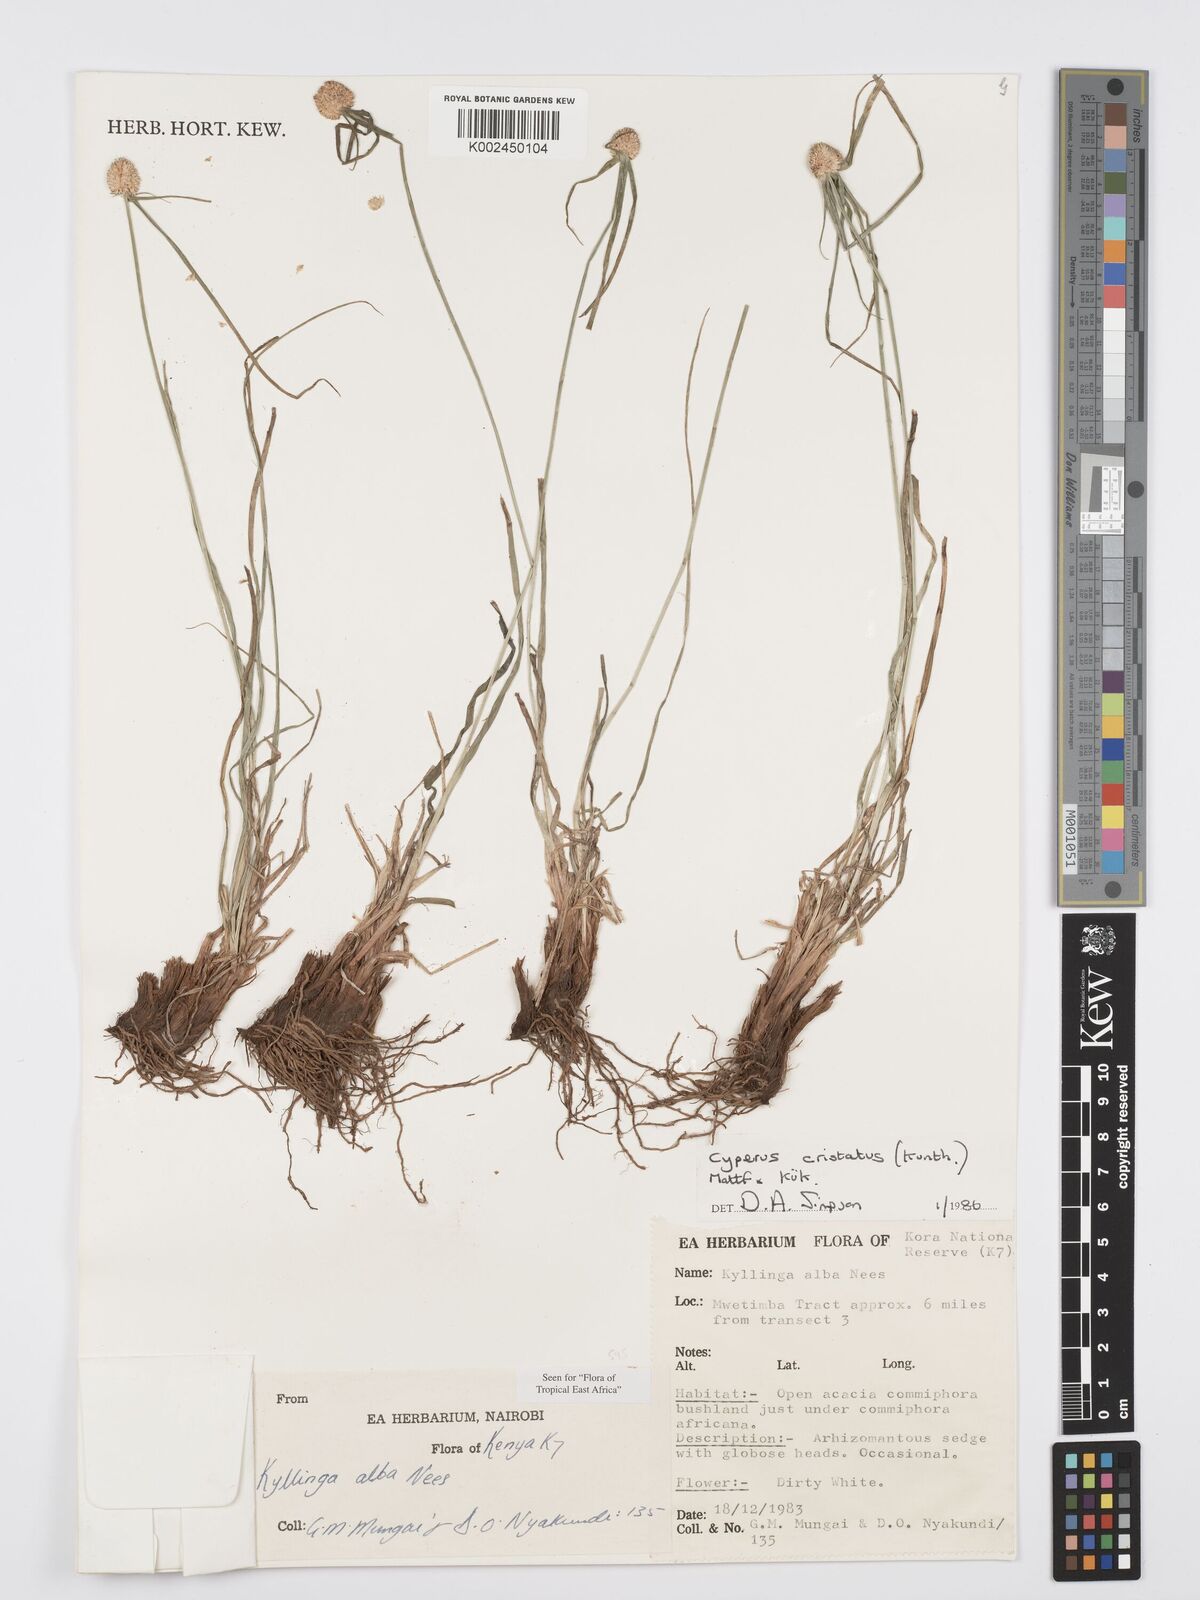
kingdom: Plantae
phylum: Tracheophyta
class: Liliopsida
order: Poales
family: Cyperaceae
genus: Cyperus
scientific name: Cyperus
